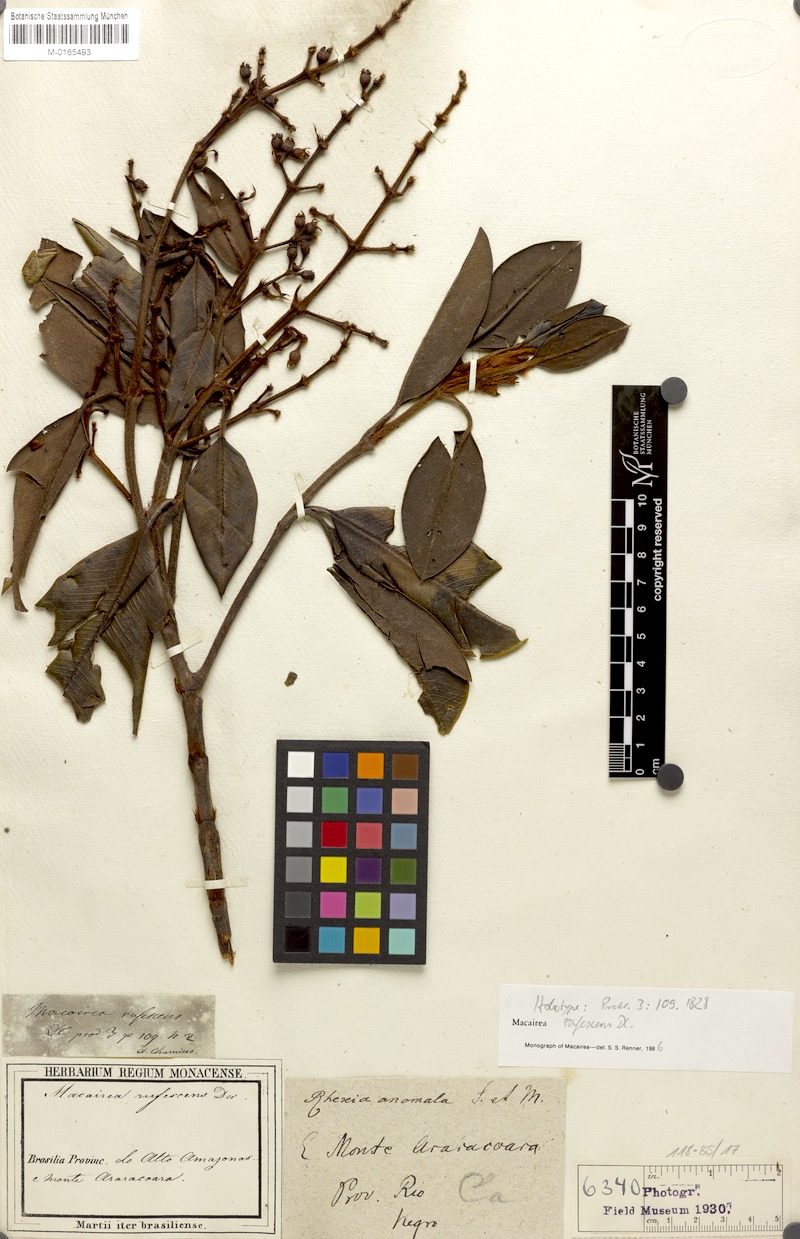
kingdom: Plantae
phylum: Tracheophyta
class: Magnoliopsida
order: Myrtales
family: Melastomataceae
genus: Macairea
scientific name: Macairea rufescens
